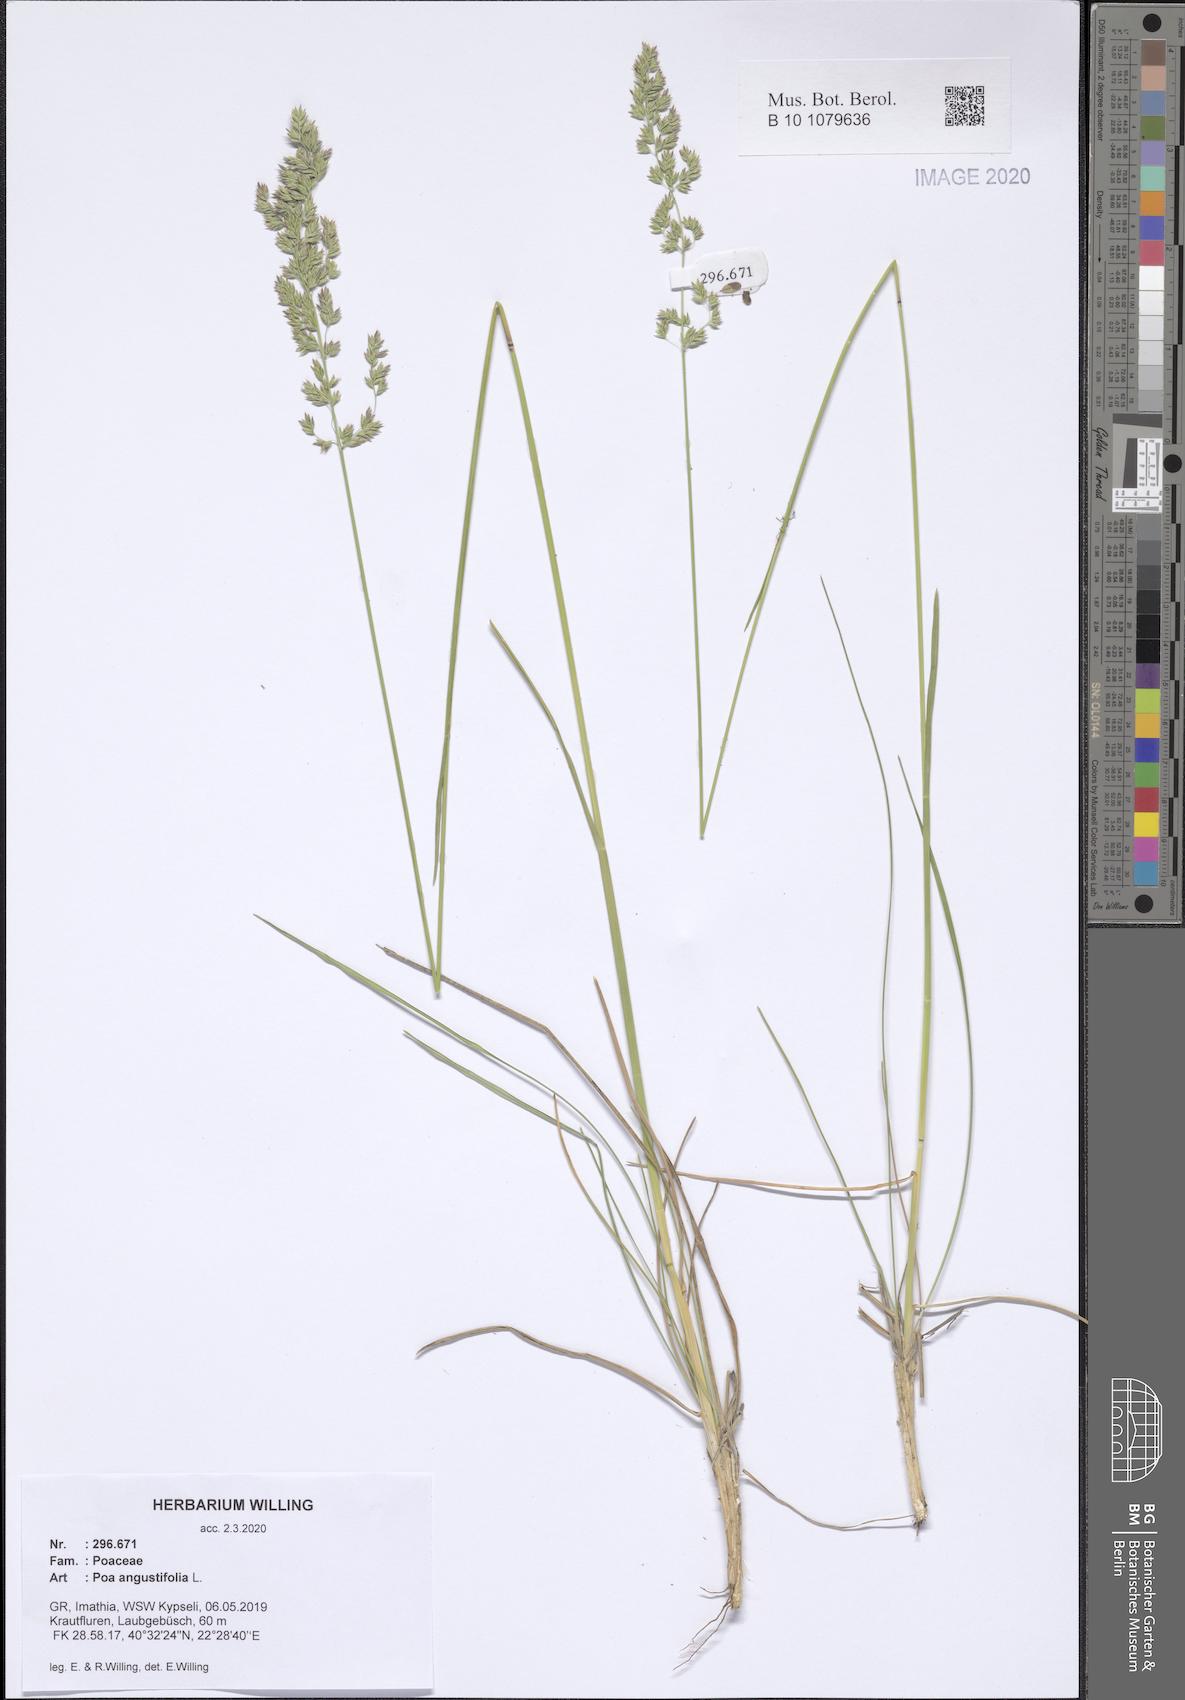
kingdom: Plantae
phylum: Tracheophyta
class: Liliopsida
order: Poales
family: Poaceae
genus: Poa
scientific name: Poa angustifolia
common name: Narrow-leaved meadow-grass
